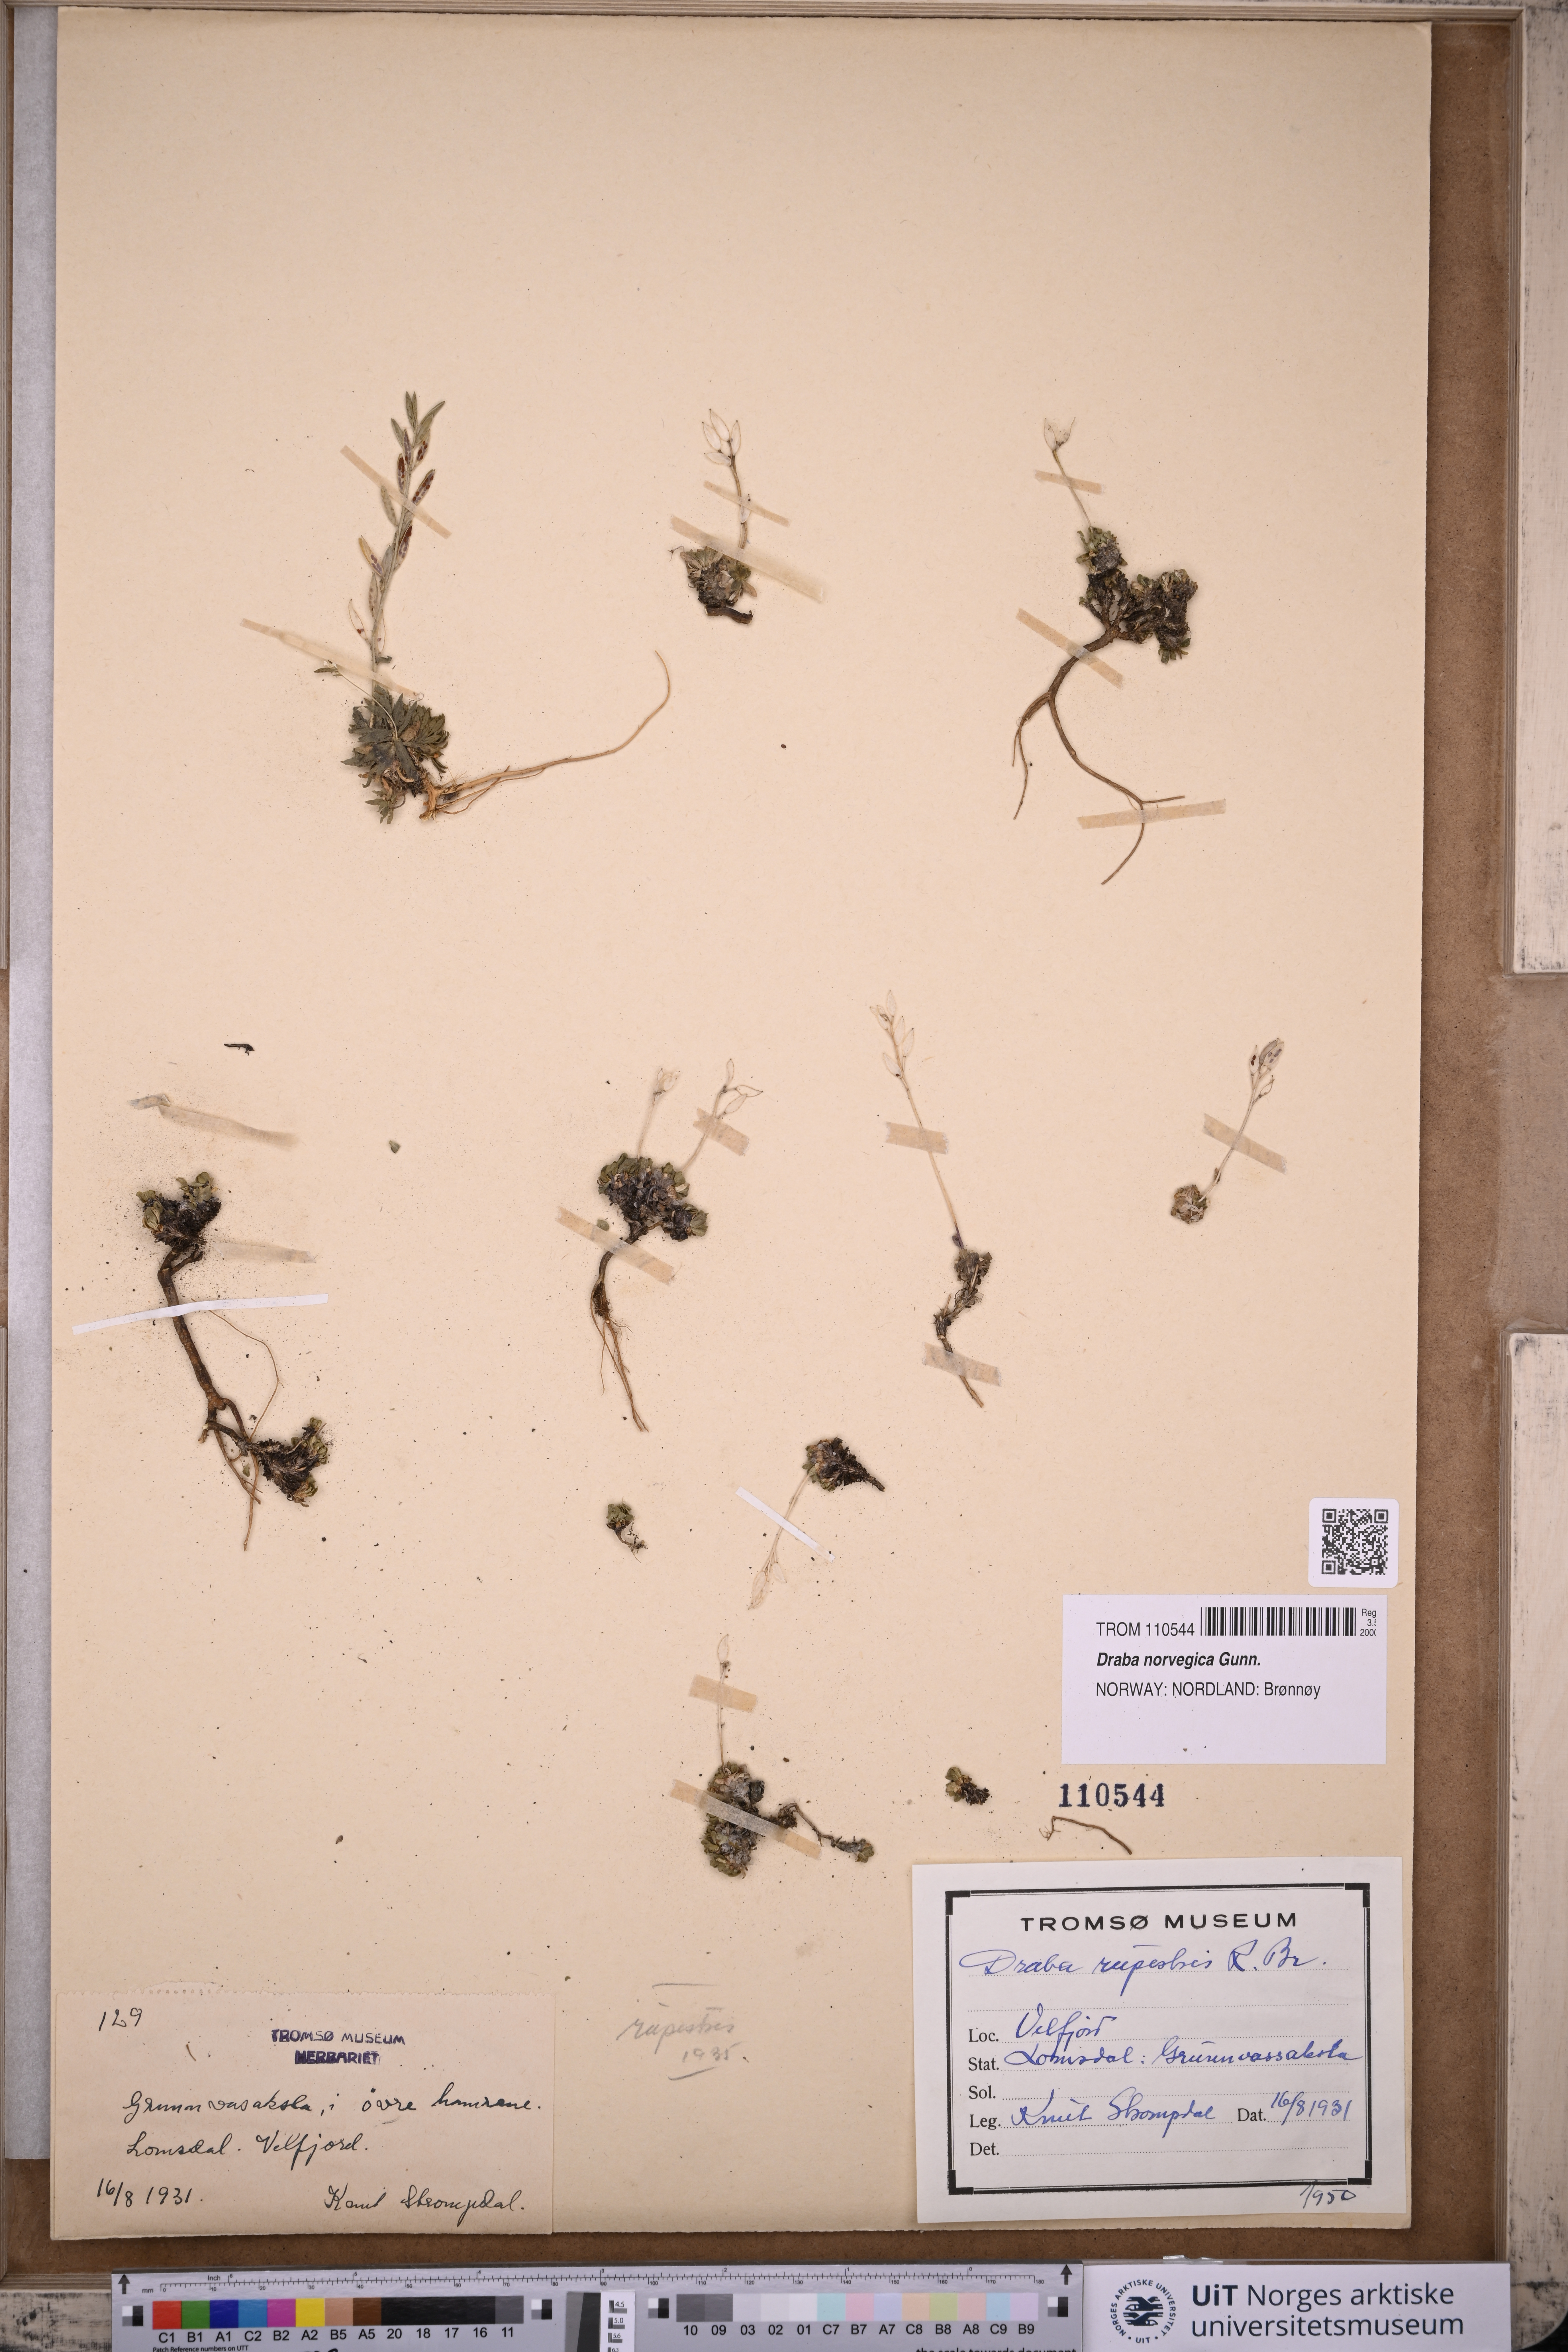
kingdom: Plantae
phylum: Tracheophyta
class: Magnoliopsida
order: Brassicales
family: Brassicaceae
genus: Draba
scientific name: Draba norvegica
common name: Rock whitlowgrass
